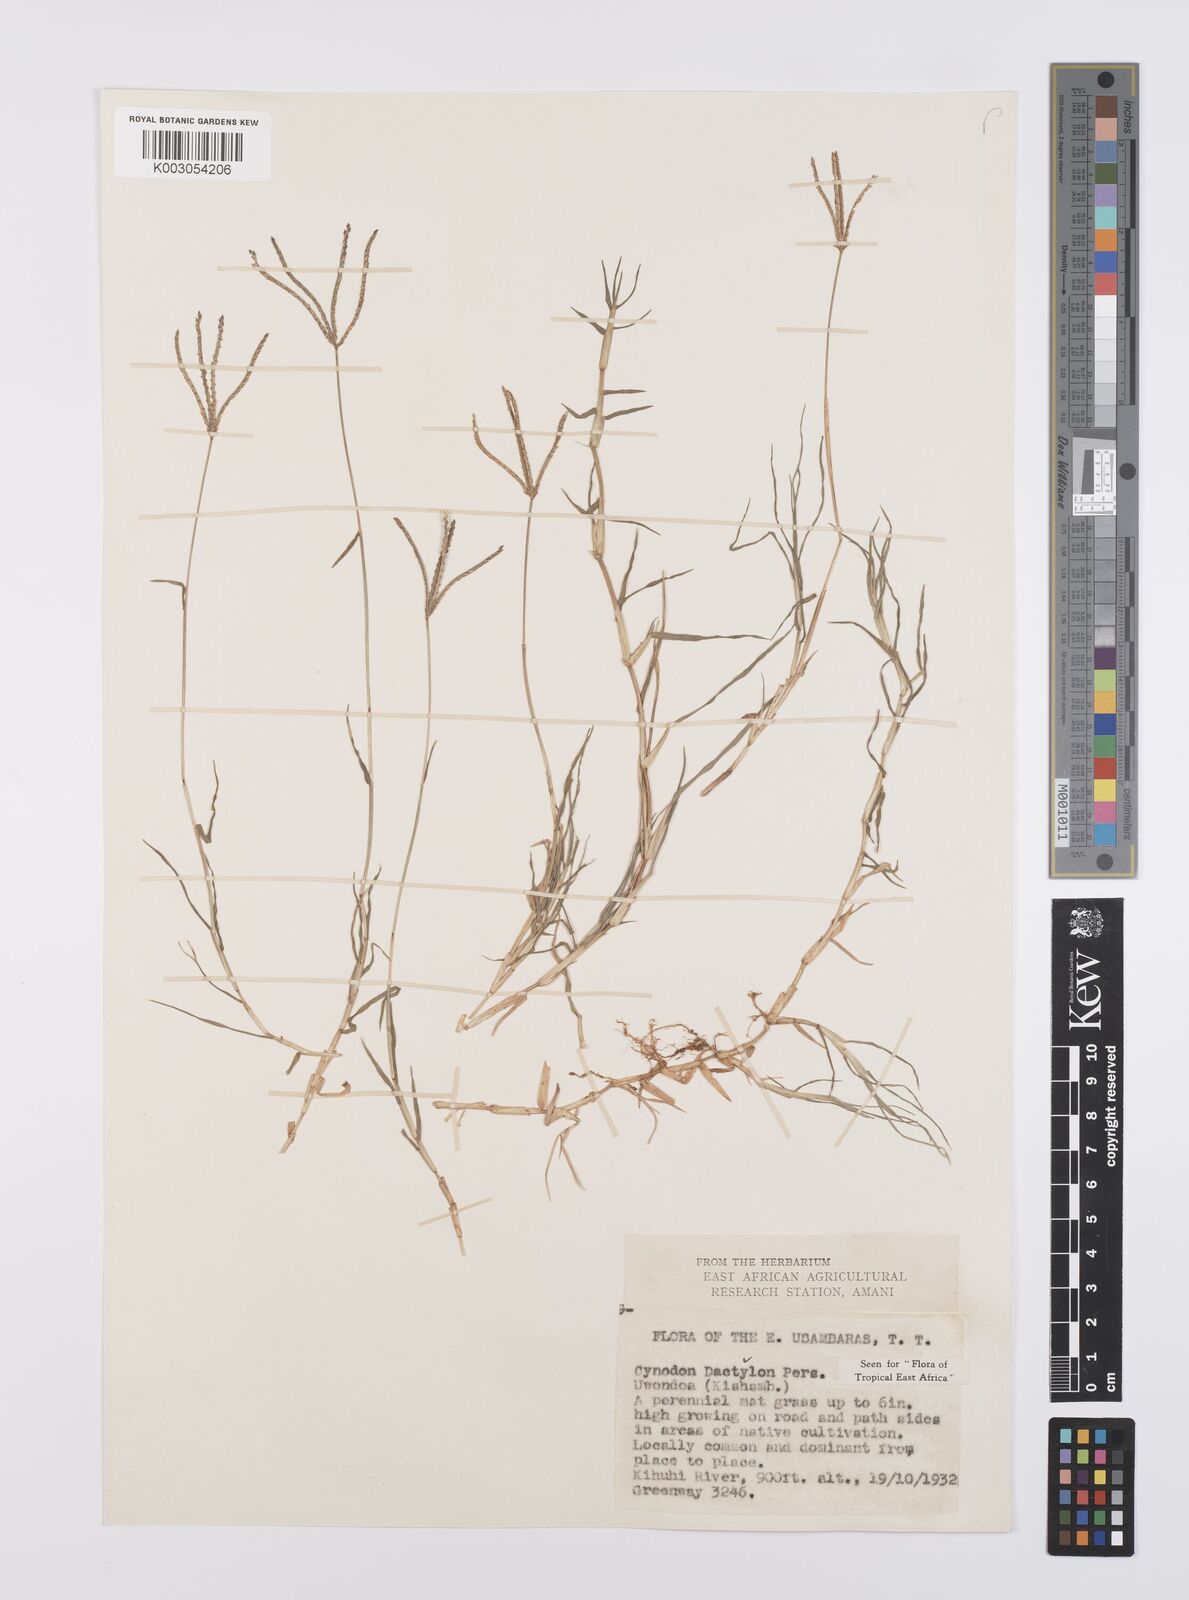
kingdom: Plantae
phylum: Tracheophyta
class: Liliopsida
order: Poales
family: Poaceae
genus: Cynodon
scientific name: Cynodon dactylon
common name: Bermuda grass
